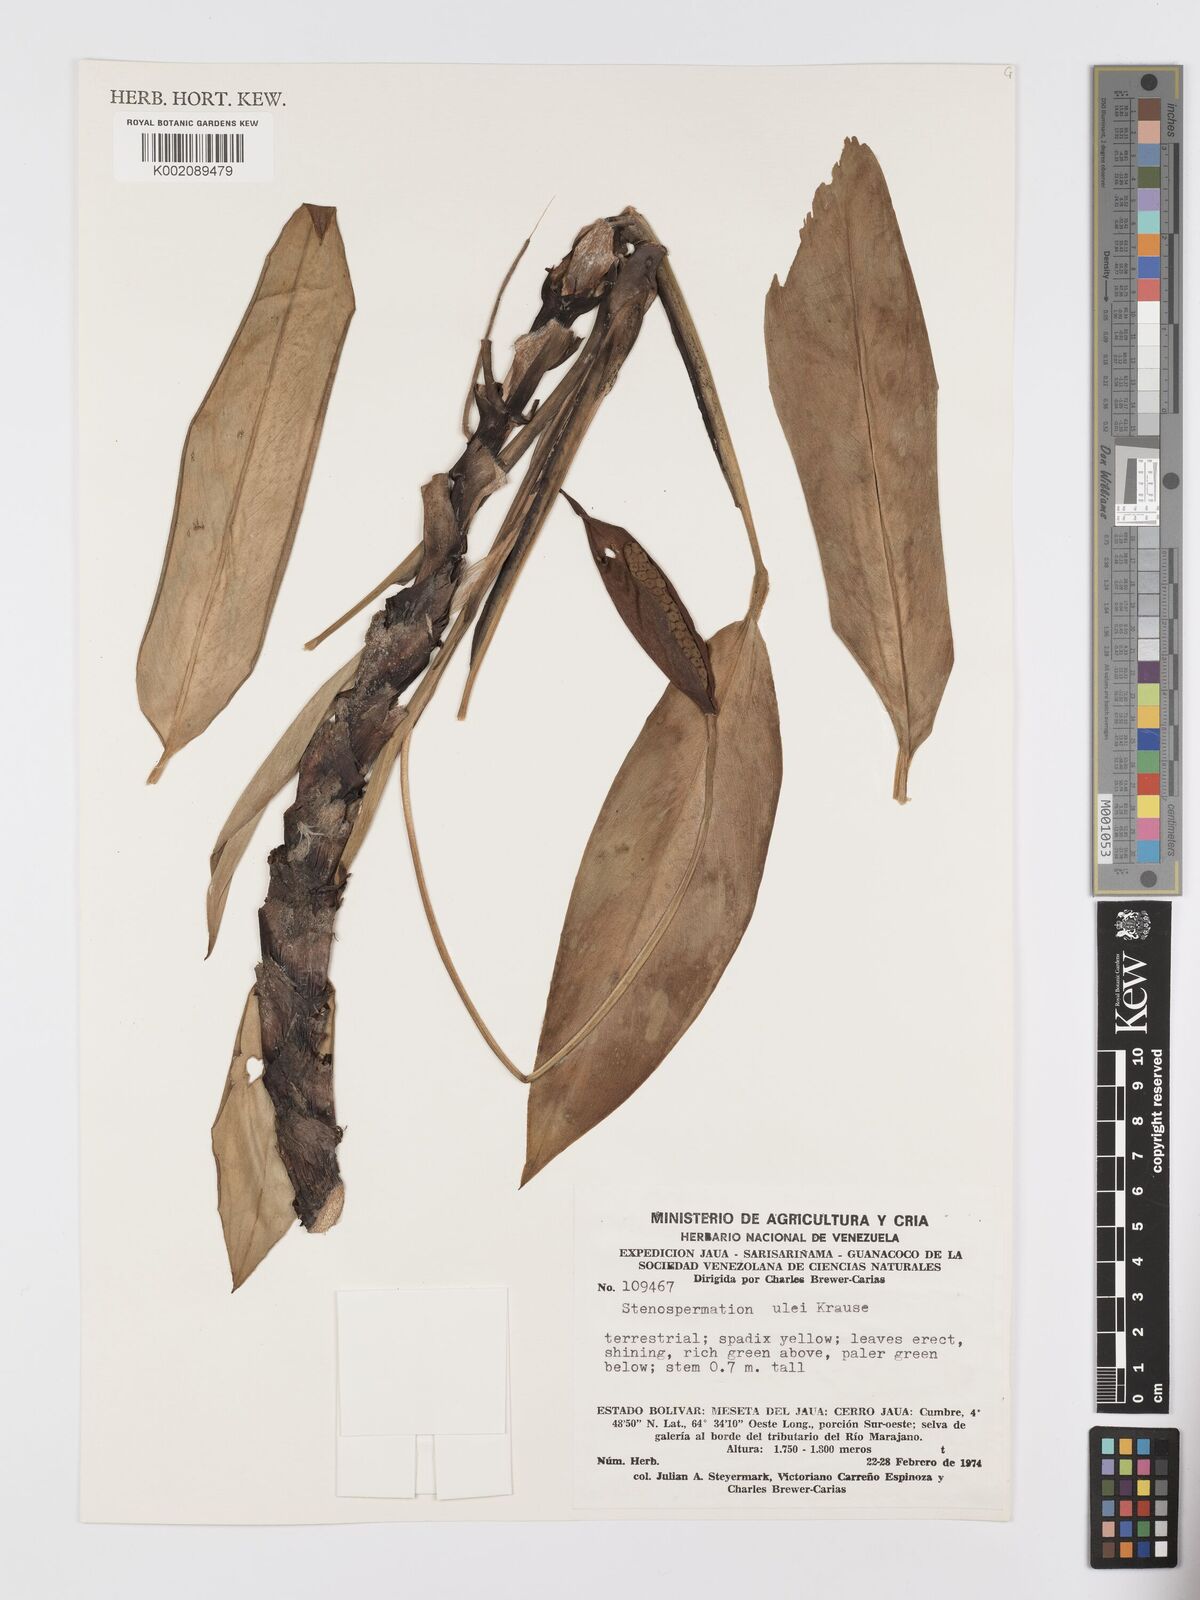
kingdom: Plantae
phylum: Tracheophyta
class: Liliopsida
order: Alismatales
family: Araceae
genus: Stenospermation
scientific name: Stenospermation ulei
